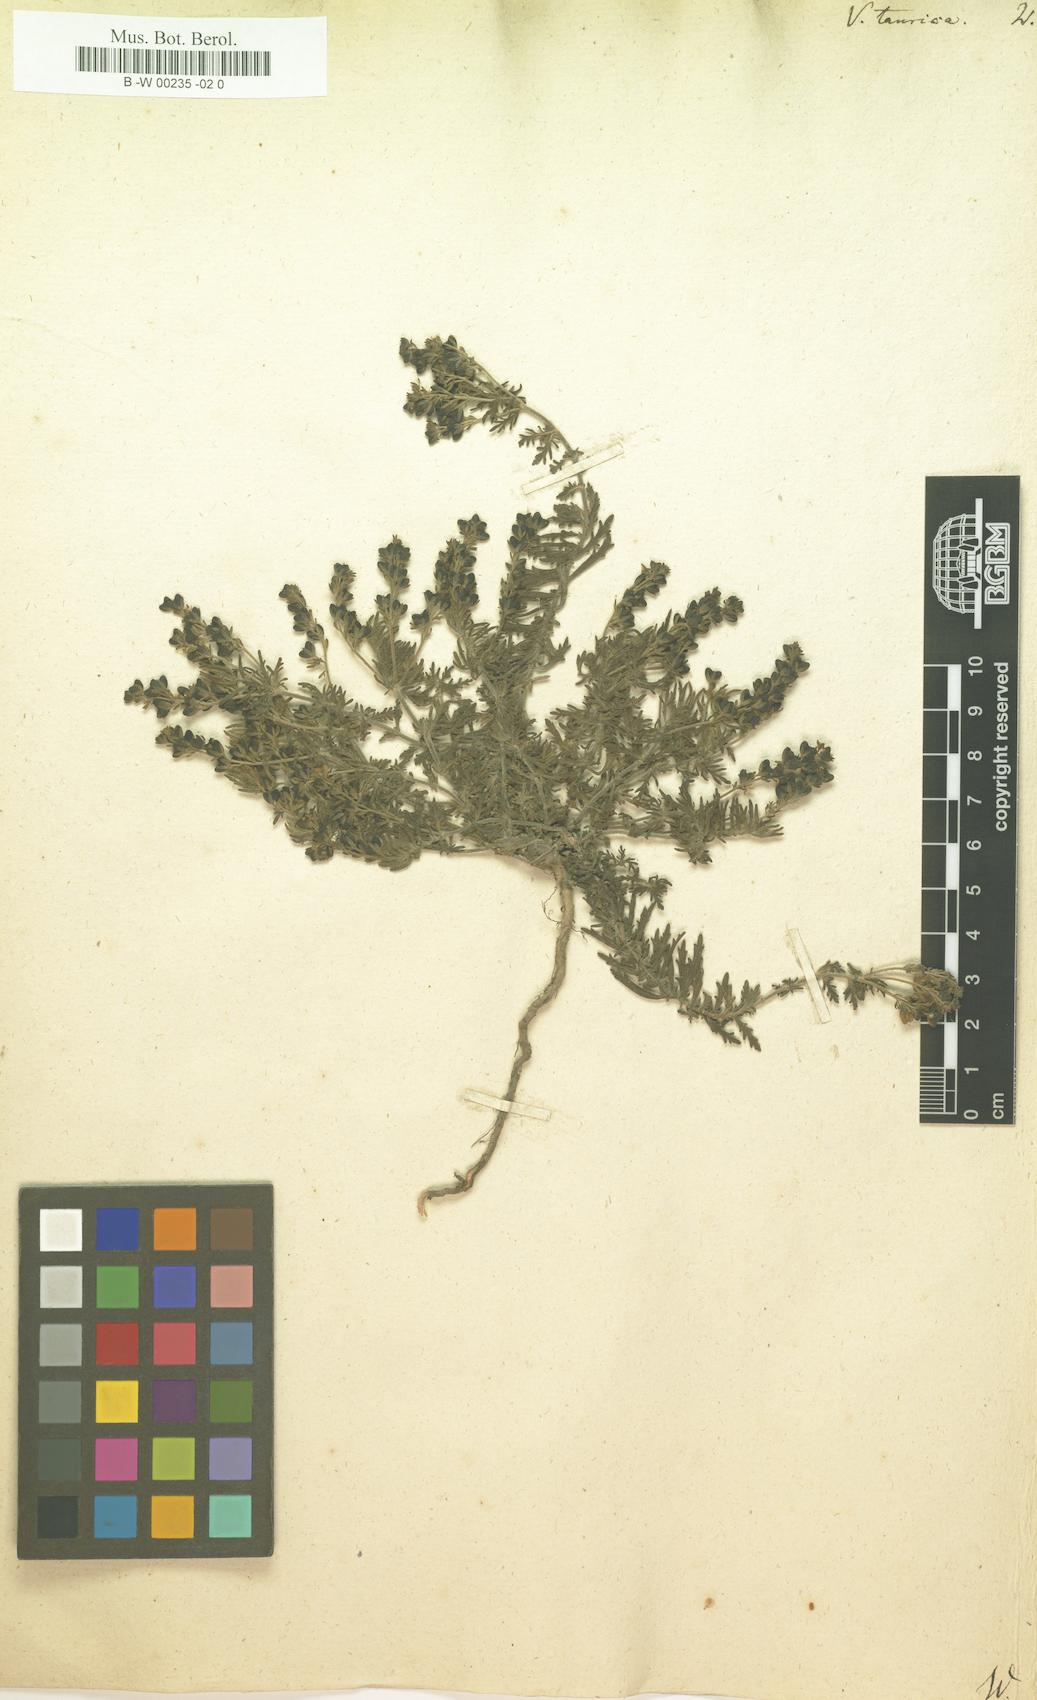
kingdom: Plantae
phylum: Tracheophyta
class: Magnoliopsida
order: Lamiales
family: Plantaginaceae
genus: Veronica
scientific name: Veronica taurica
